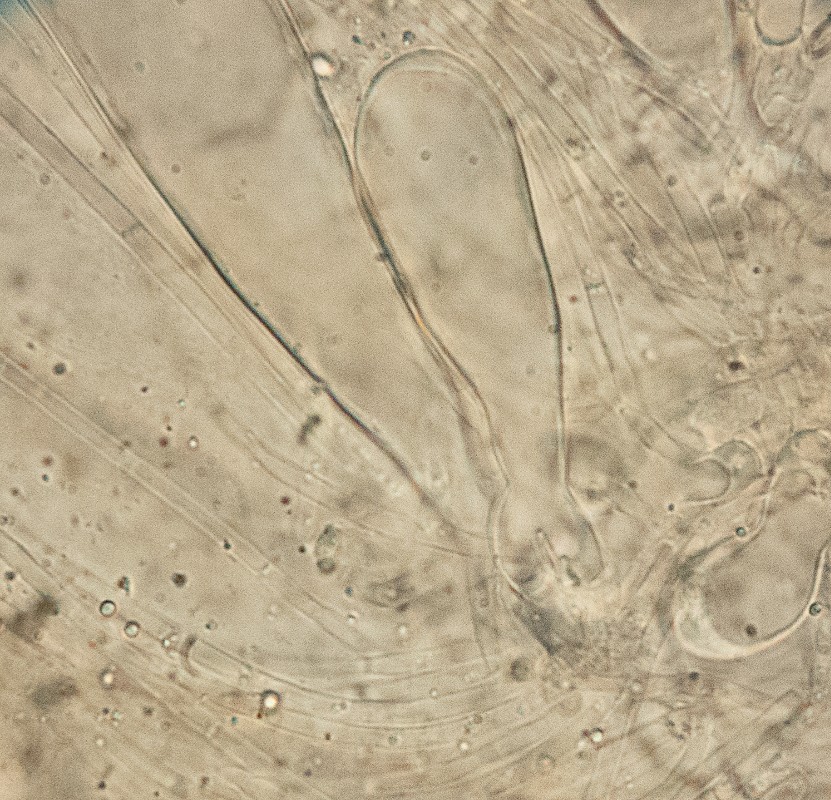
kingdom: Fungi
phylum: Ascomycota
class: Pezizomycetes
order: Pezizales
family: Pulvinulaceae
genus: Pulvinula
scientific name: Pulvinula convexella
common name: stor pudebæger
